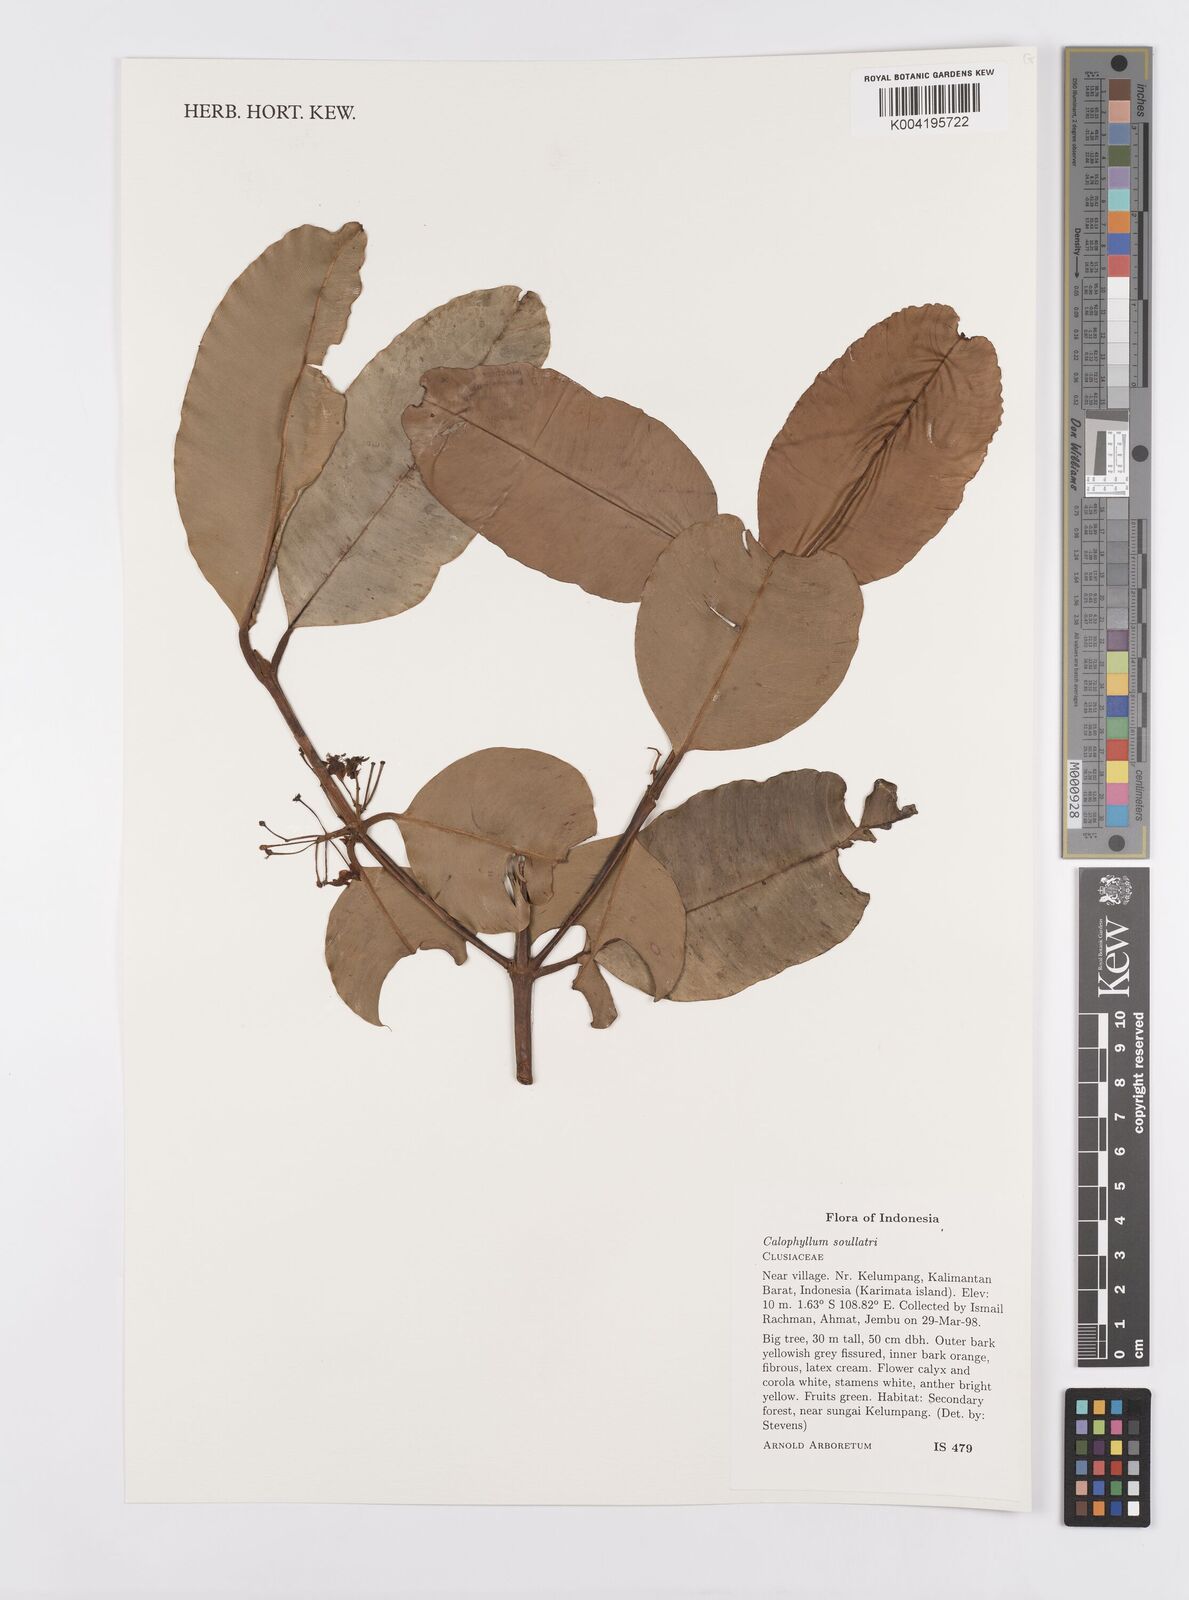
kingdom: Plantae
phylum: Tracheophyta
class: Magnoliopsida
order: Malpighiales
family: Calophyllaceae
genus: Calophyllum
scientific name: Calophyllum soulattri
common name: Bitangoor boonot
